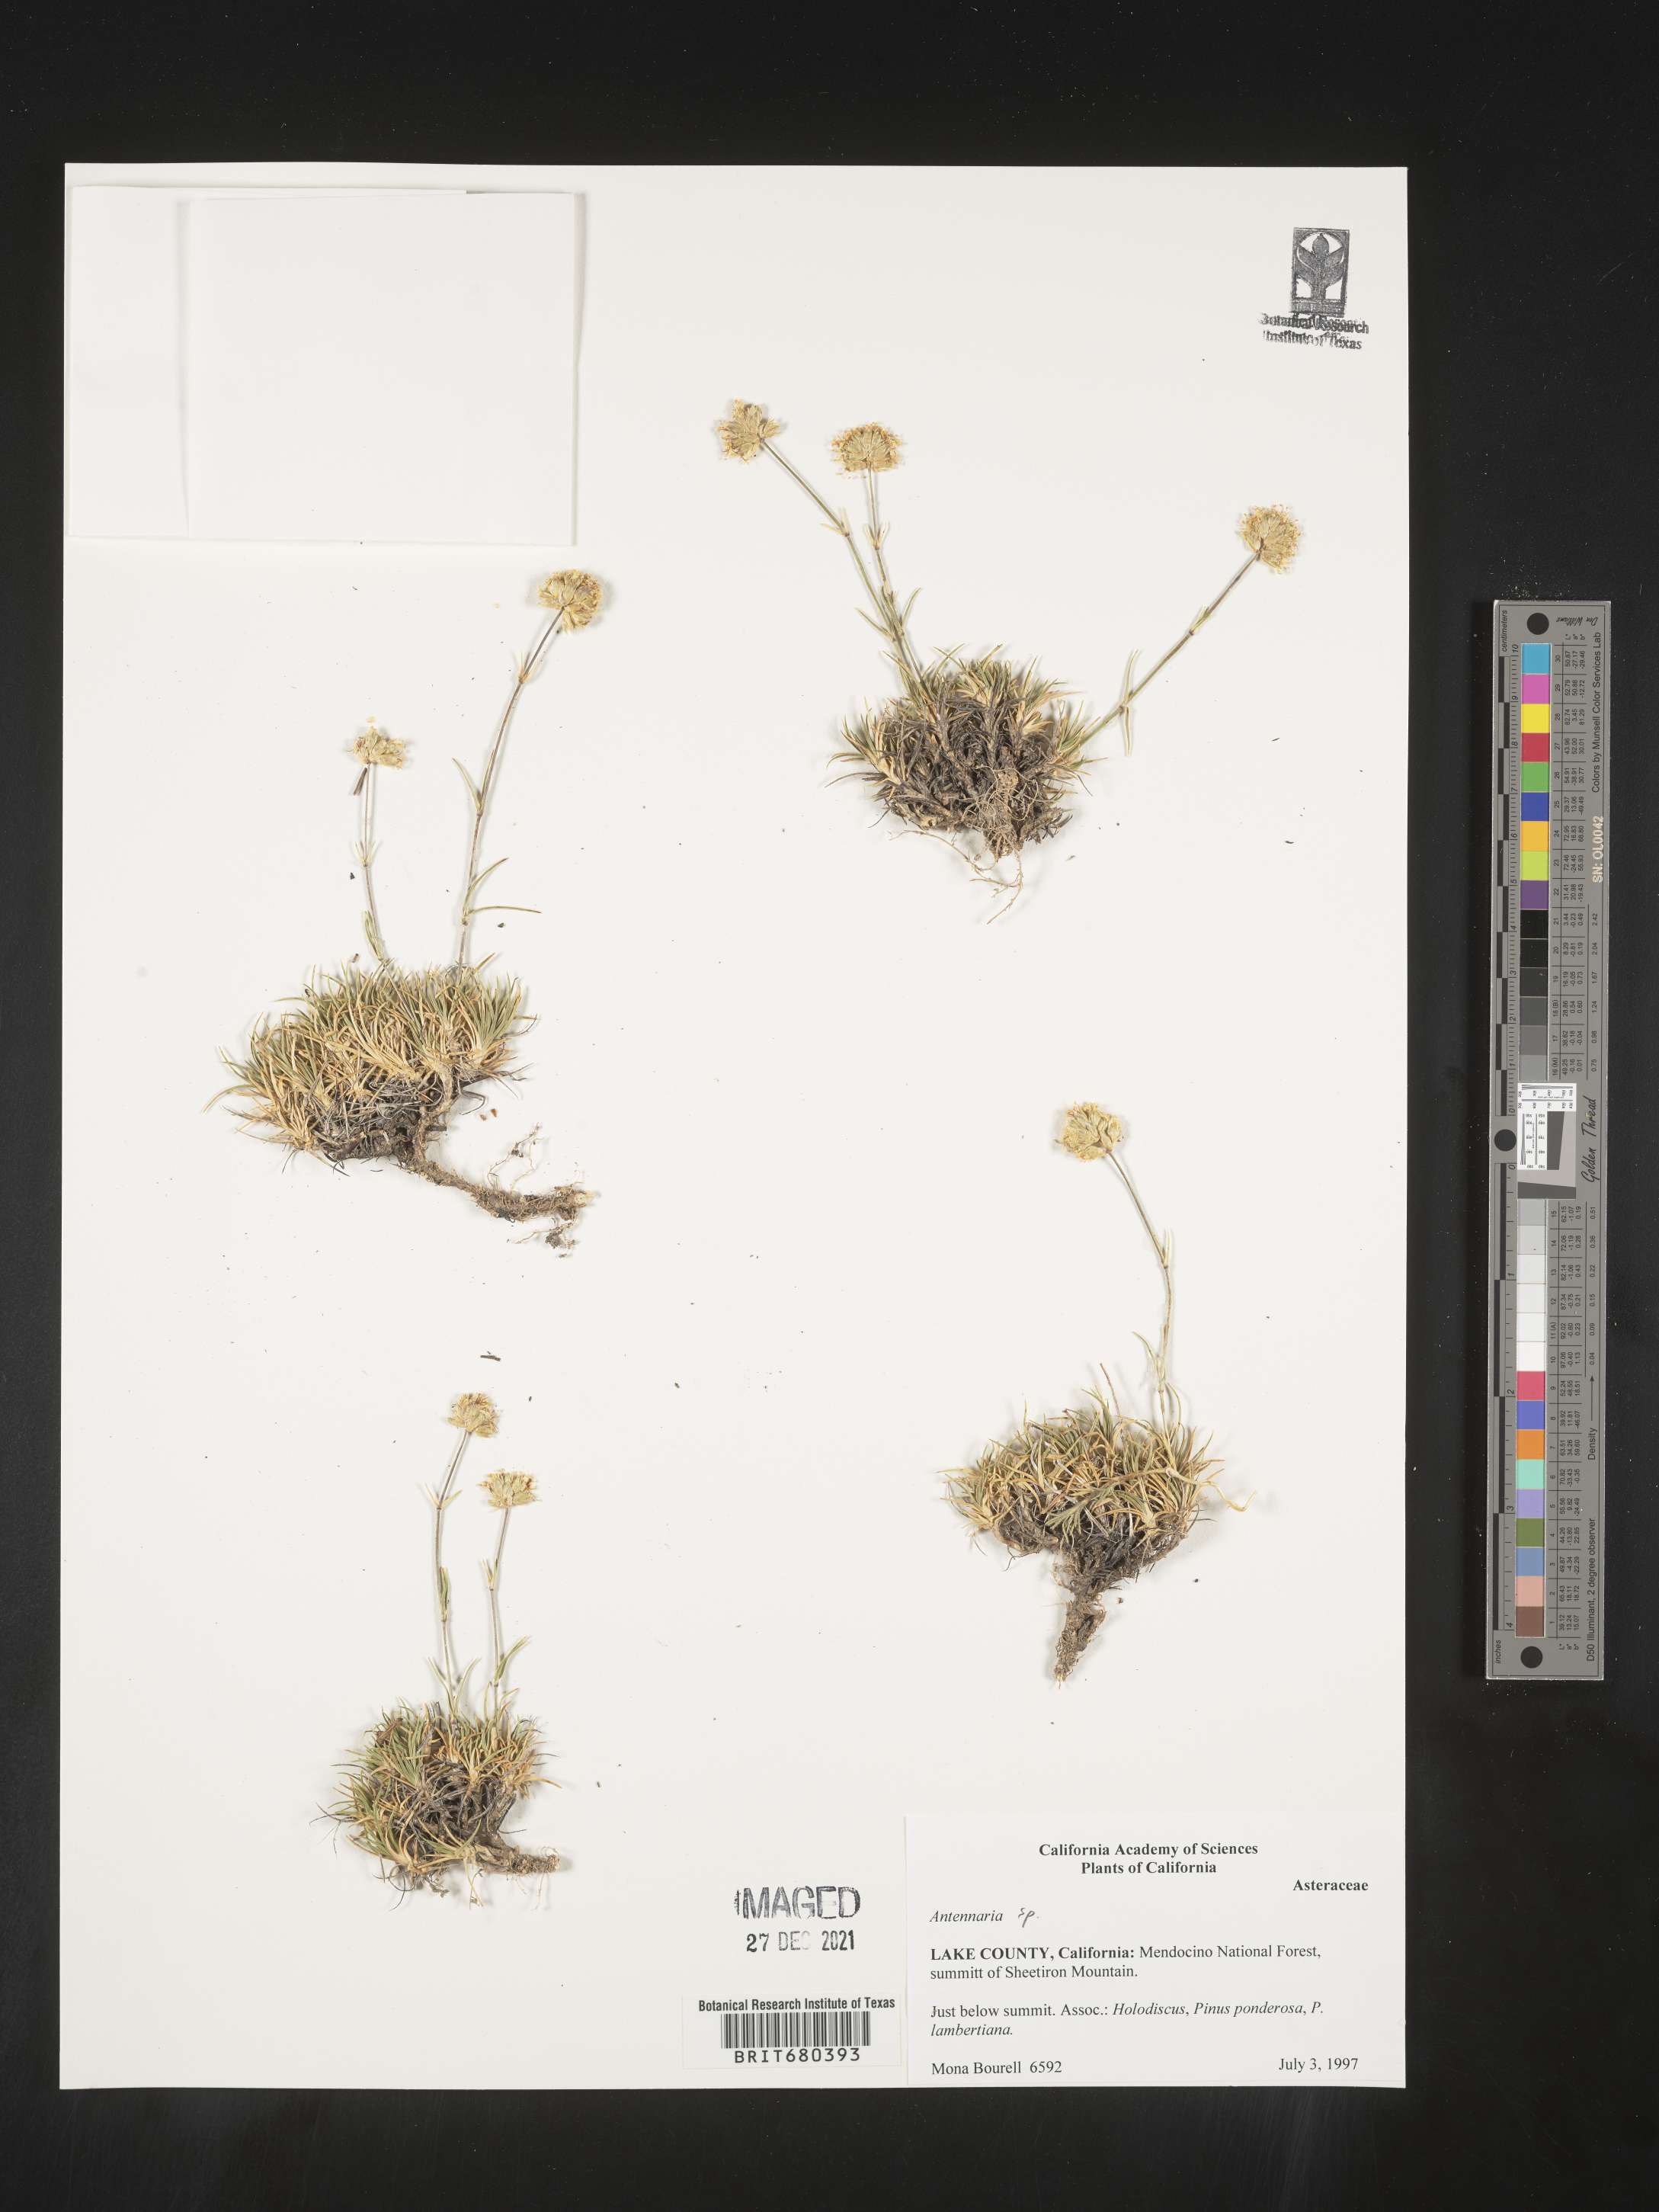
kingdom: Plantae
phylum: Tracheophyta
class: Magnoliopsida
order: Asterales
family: Asteraceae
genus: Antennaria
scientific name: Antennaria umbrinella
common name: Brown pussytoes
